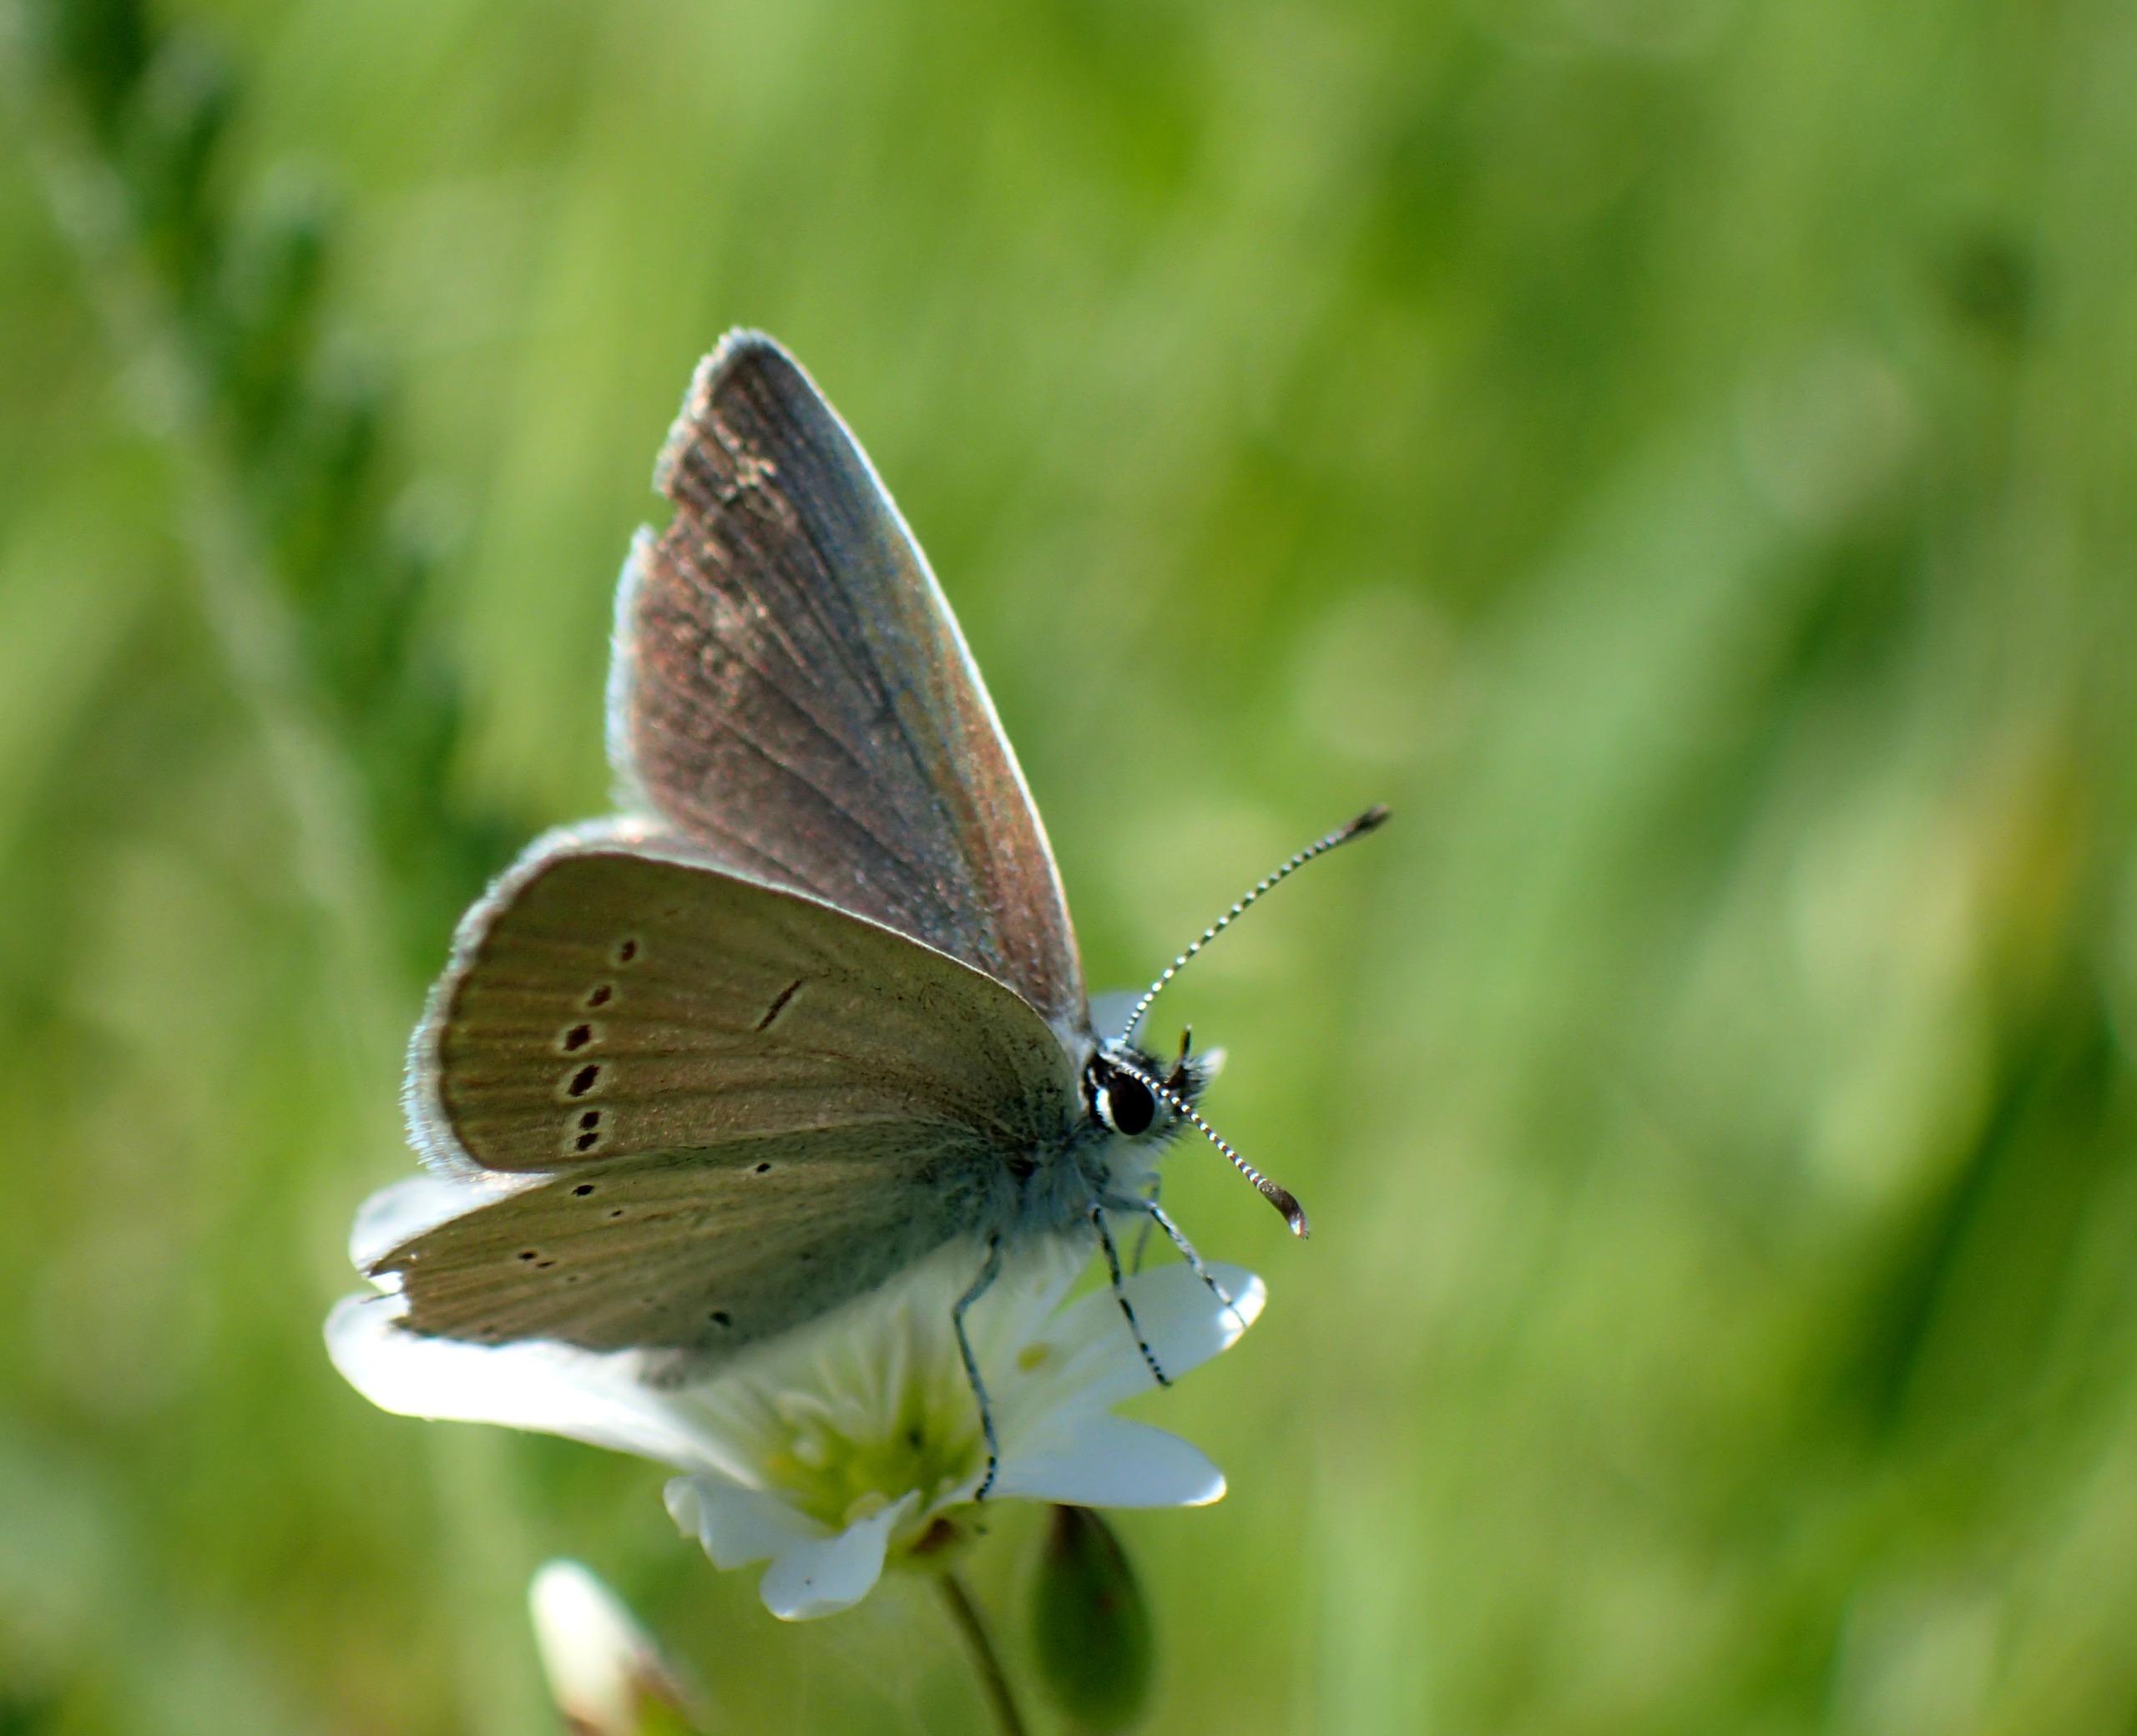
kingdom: Animalia
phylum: Arthropoda
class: Insecta
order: Lepidoptera
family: Lycaenidae
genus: Cupido
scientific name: Cupido minimus
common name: Dværgblåfugl
